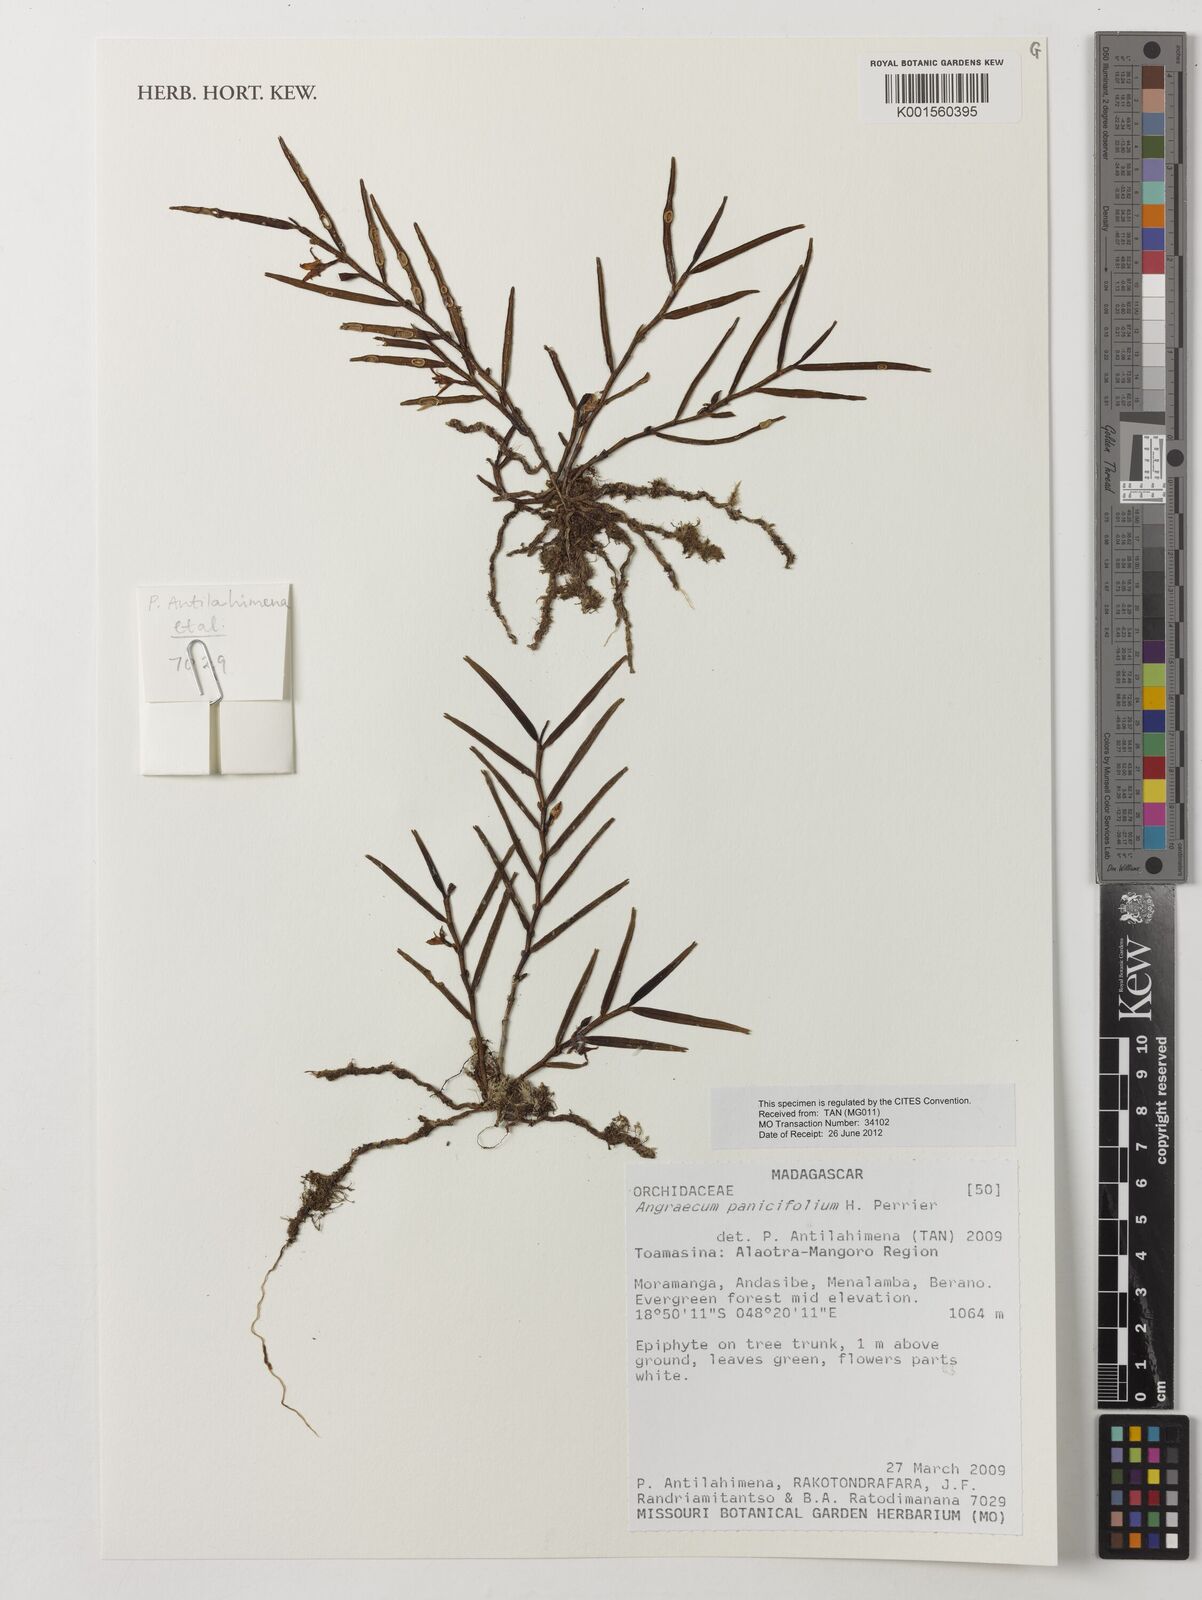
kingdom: Plantae
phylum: Tracheophyta
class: Liliopsida
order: Asparagales
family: Orchidaceae
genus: Angraecum
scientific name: Angraecum panicifolium
